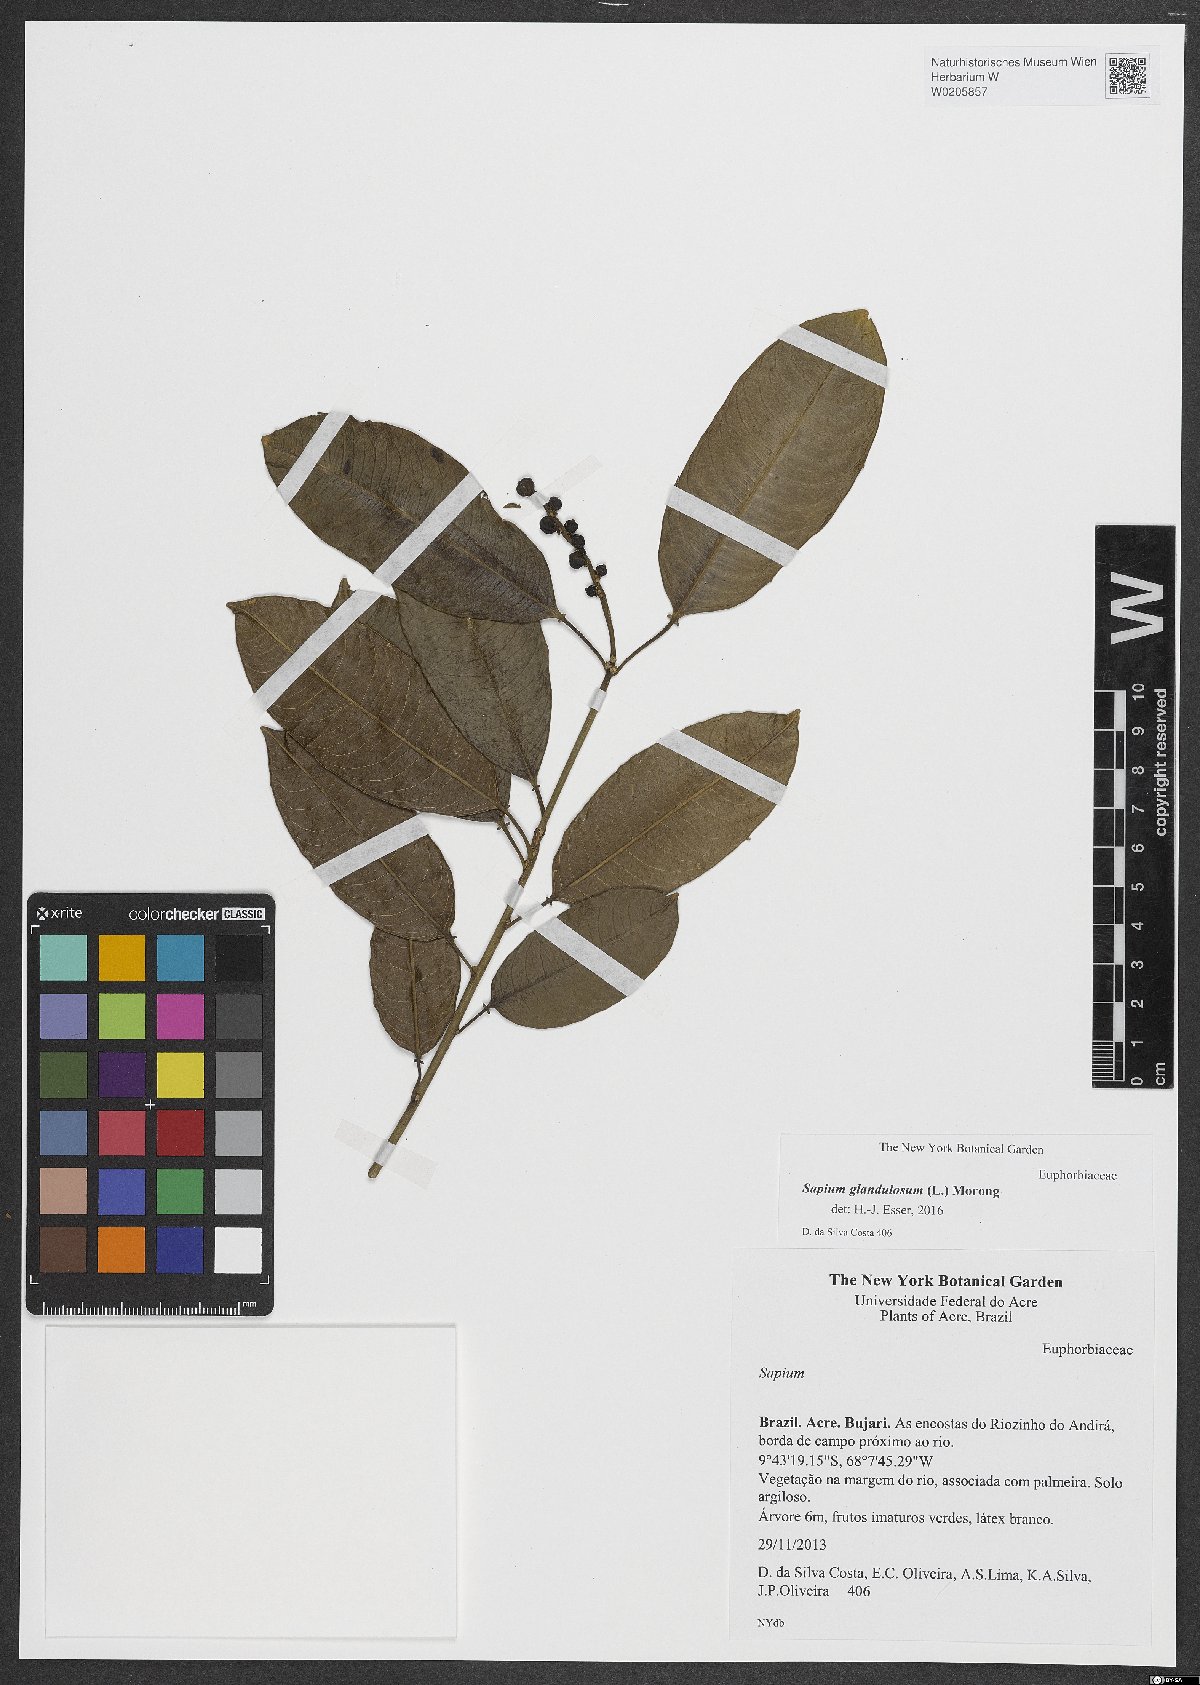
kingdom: Plantae
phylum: Tracheophyta
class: Magnoliopsida
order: Malpighiales
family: Euphorbiaceae
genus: Sapium
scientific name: Sapium glandulosum
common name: Milktree
